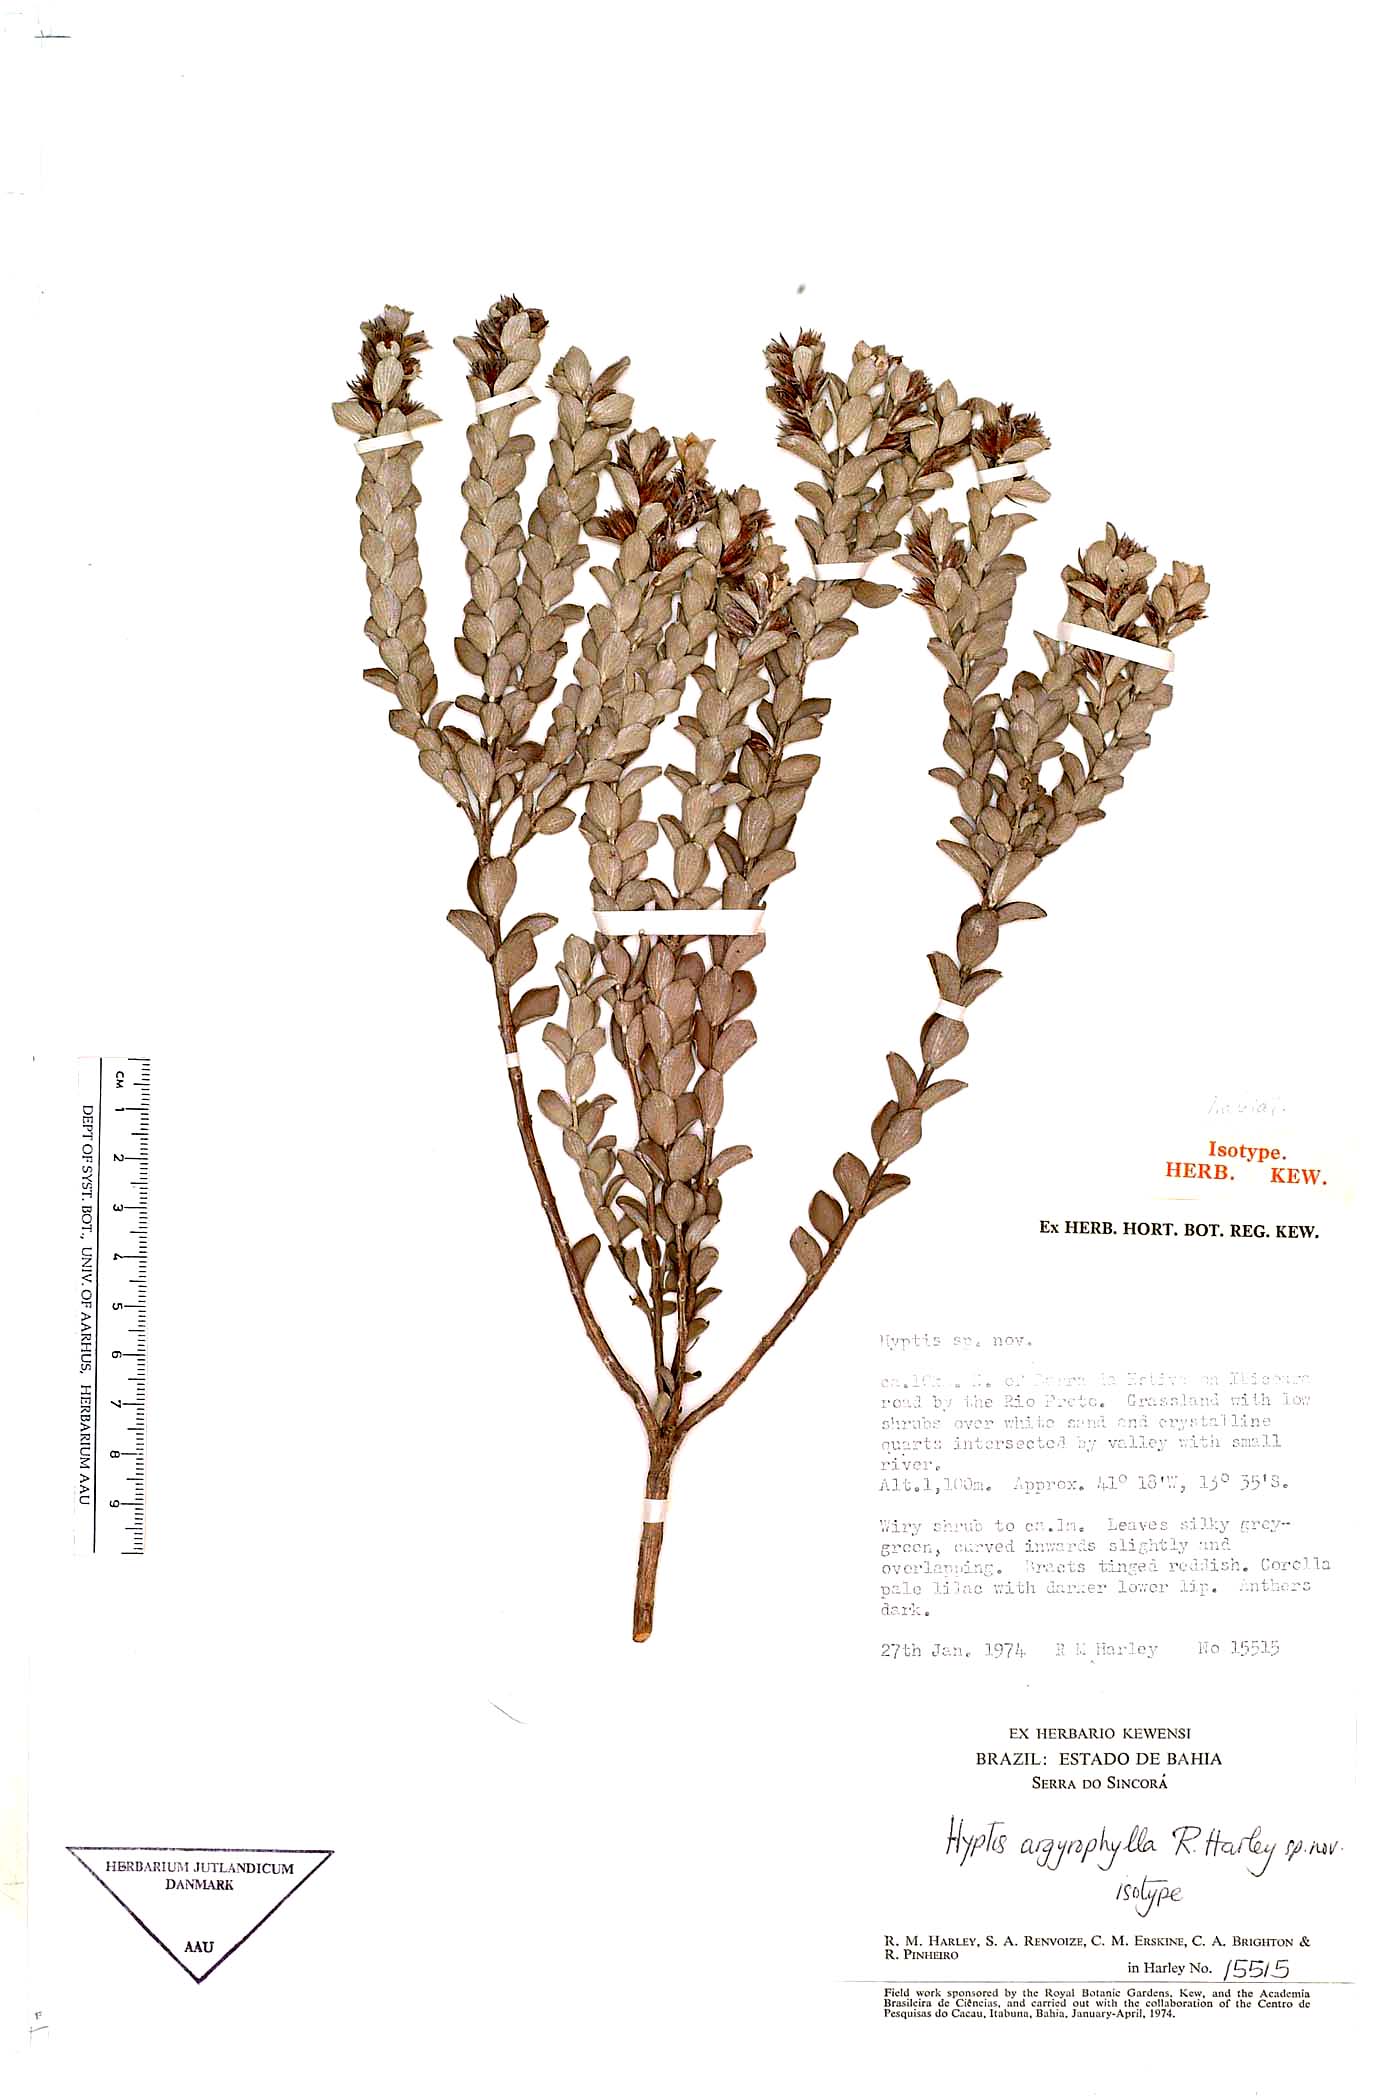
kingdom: Plantae
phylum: Tracheophyta
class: Magnoliopsida
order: Lamiales
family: Lamiaceae
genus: Oocephalus
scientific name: Oocephalus argyrophyllus
